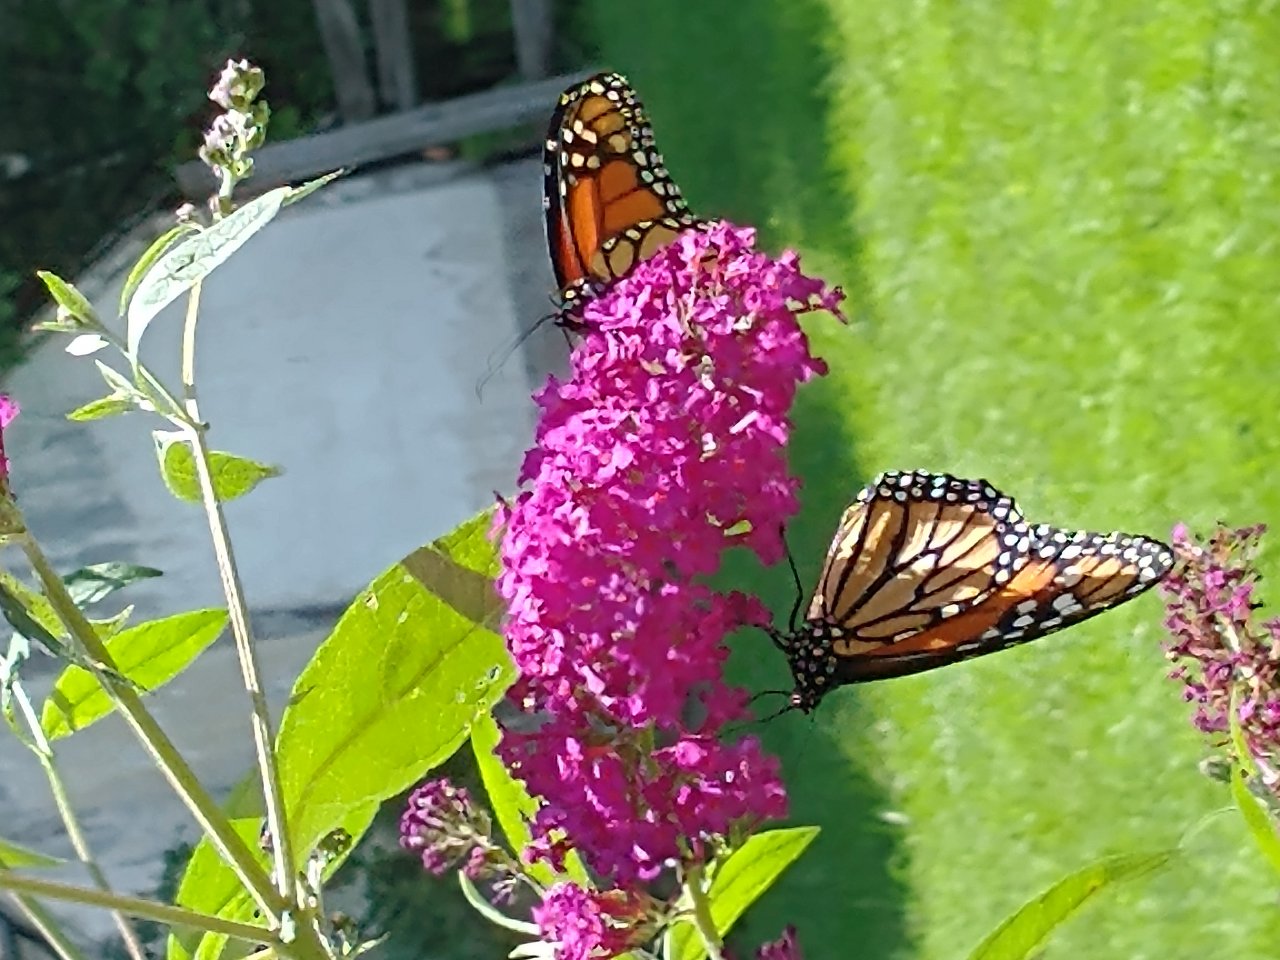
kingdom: Animalia
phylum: Arthropoda
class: Insecta
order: Lepidoptera
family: Nymphalidae
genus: Danaus
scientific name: Danaus plexippus
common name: Monarch
